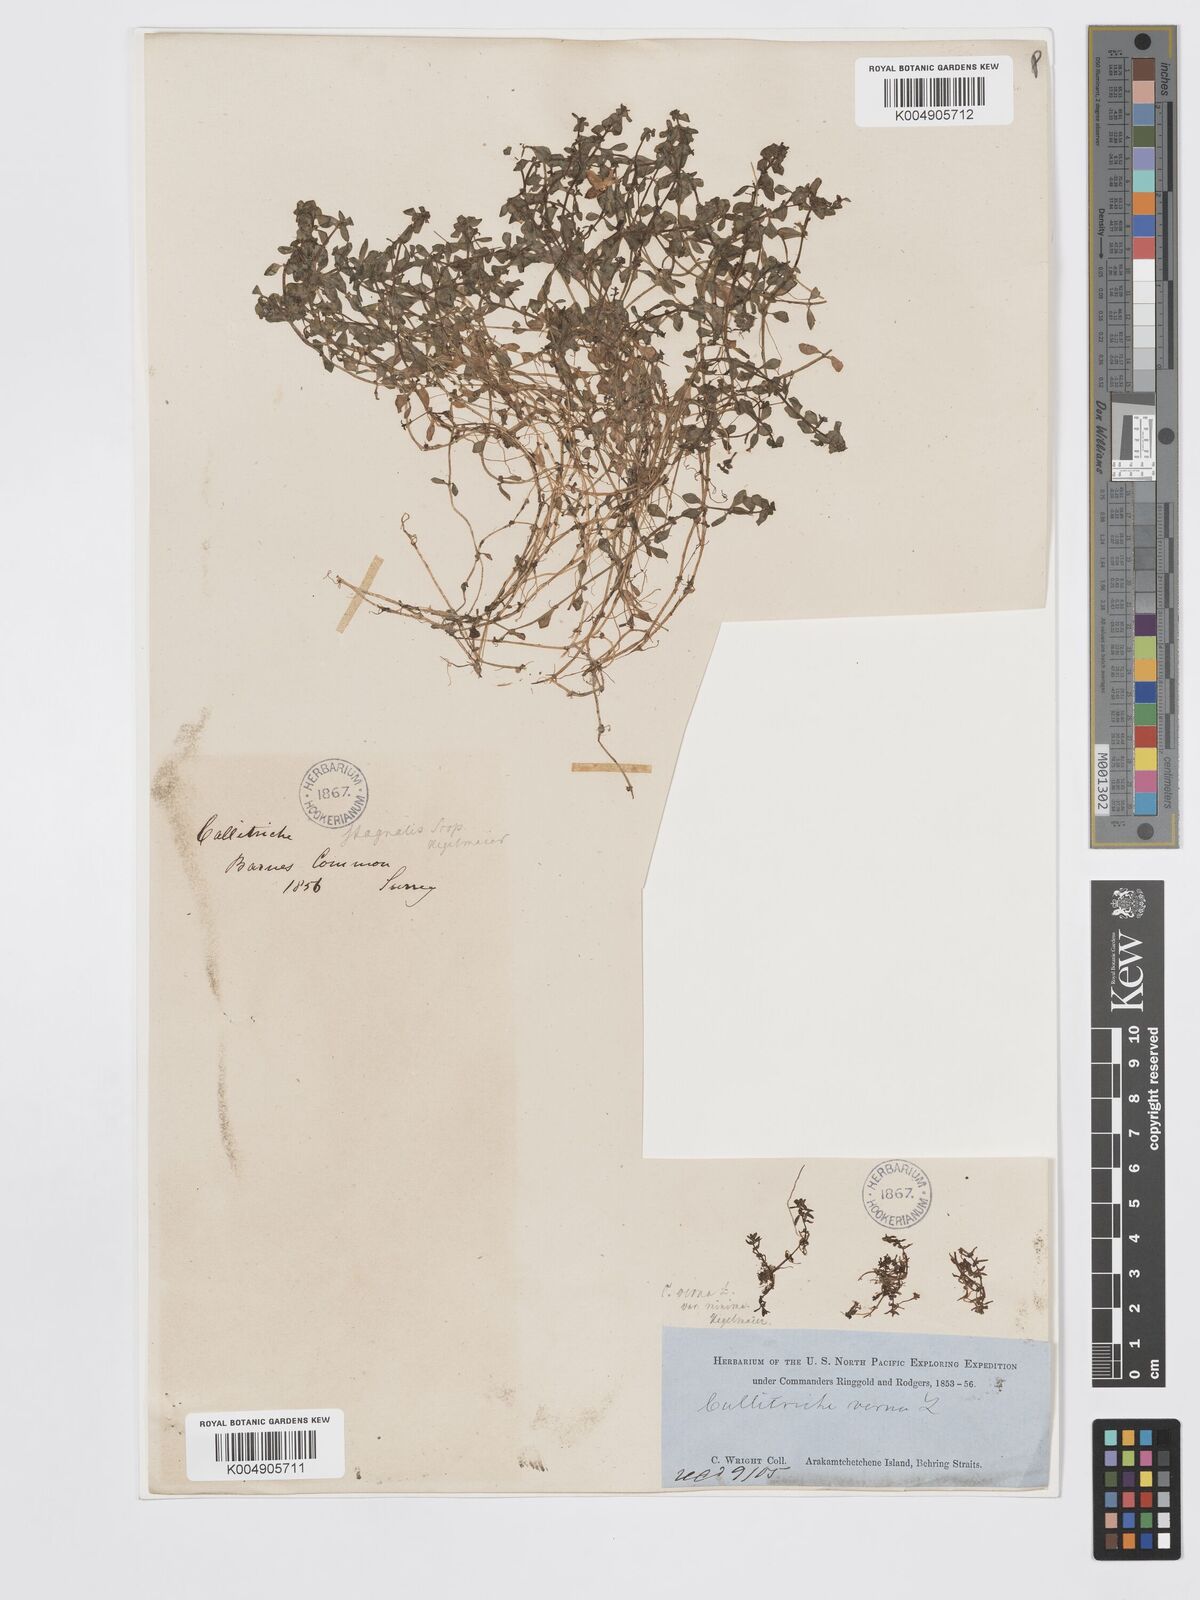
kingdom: Plantae
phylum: Tracheophyta
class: Magnoliopsida
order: Lamiales
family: Plantaginaceae
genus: Callitriche
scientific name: Callitriche stagnalis
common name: Common water-starwort
